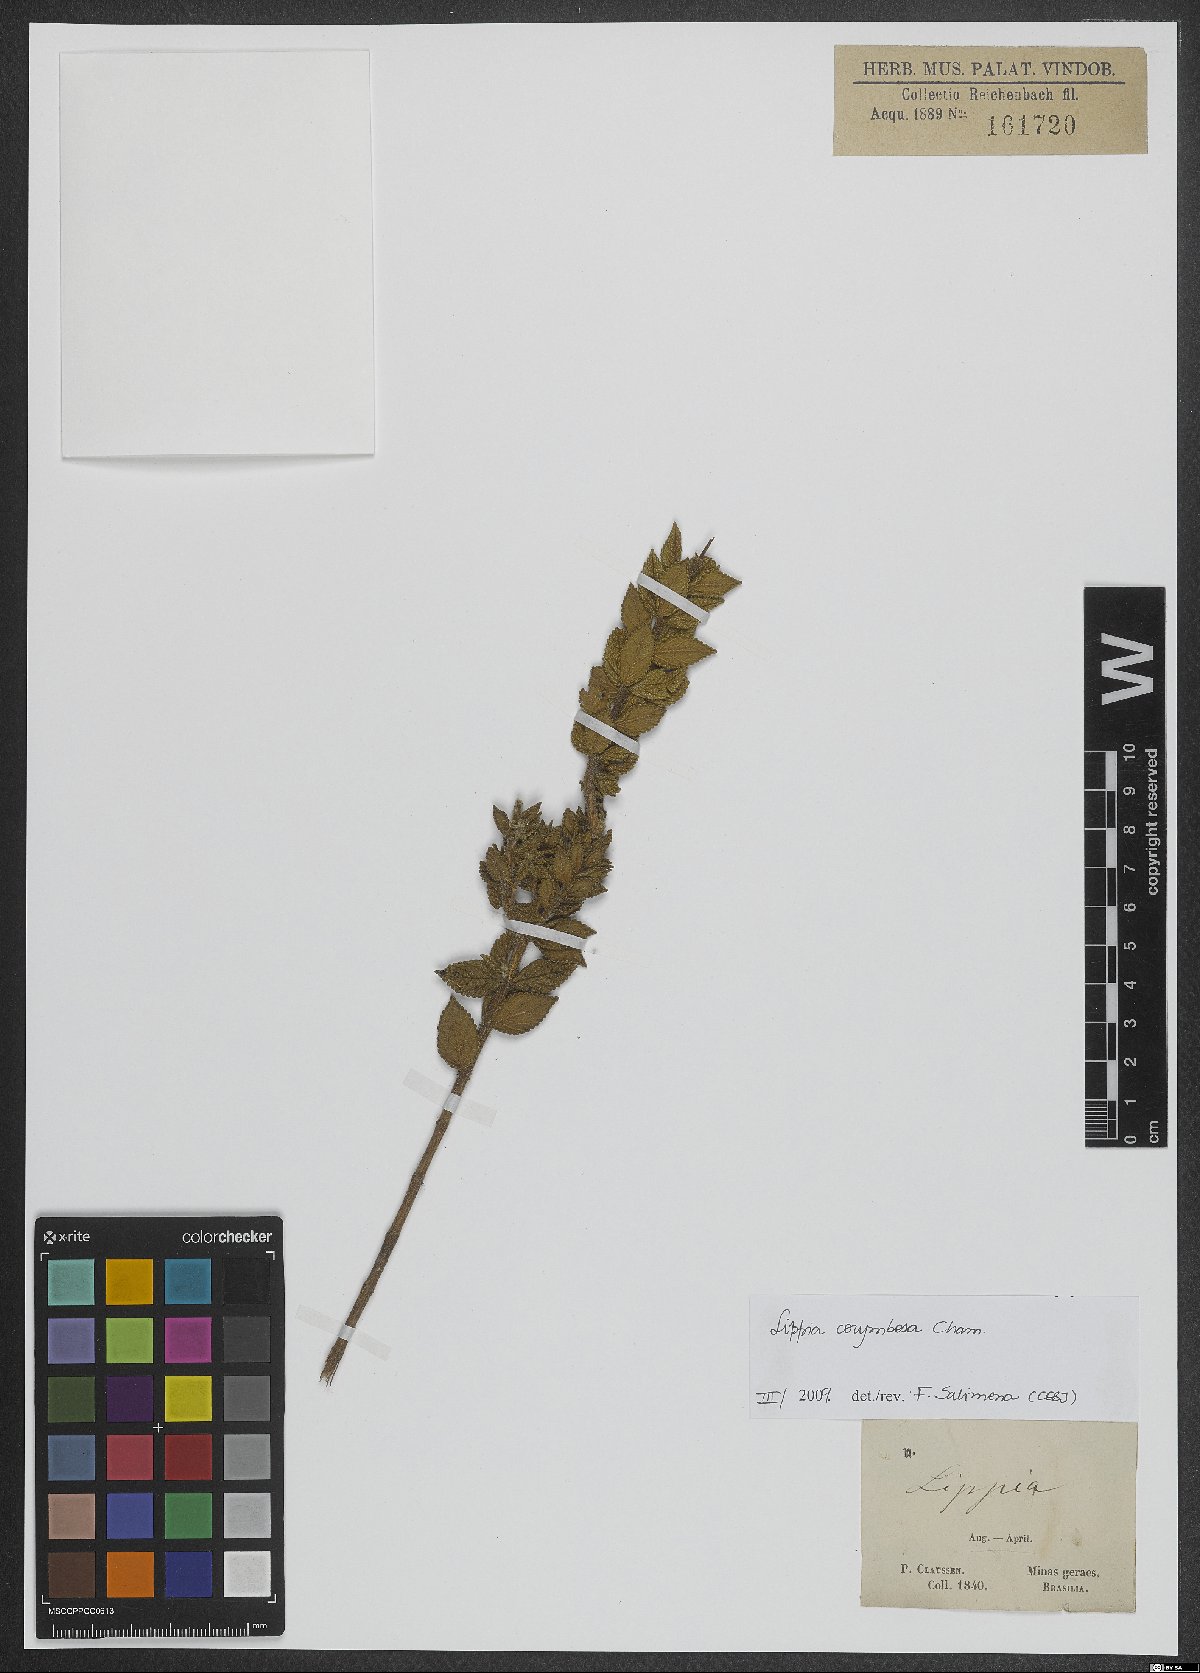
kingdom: Plantae
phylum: Tracheophyta
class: Magnoliopsida
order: Lamiales
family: Verbenaceae
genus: Lippia
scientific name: Lippia corymbosa
